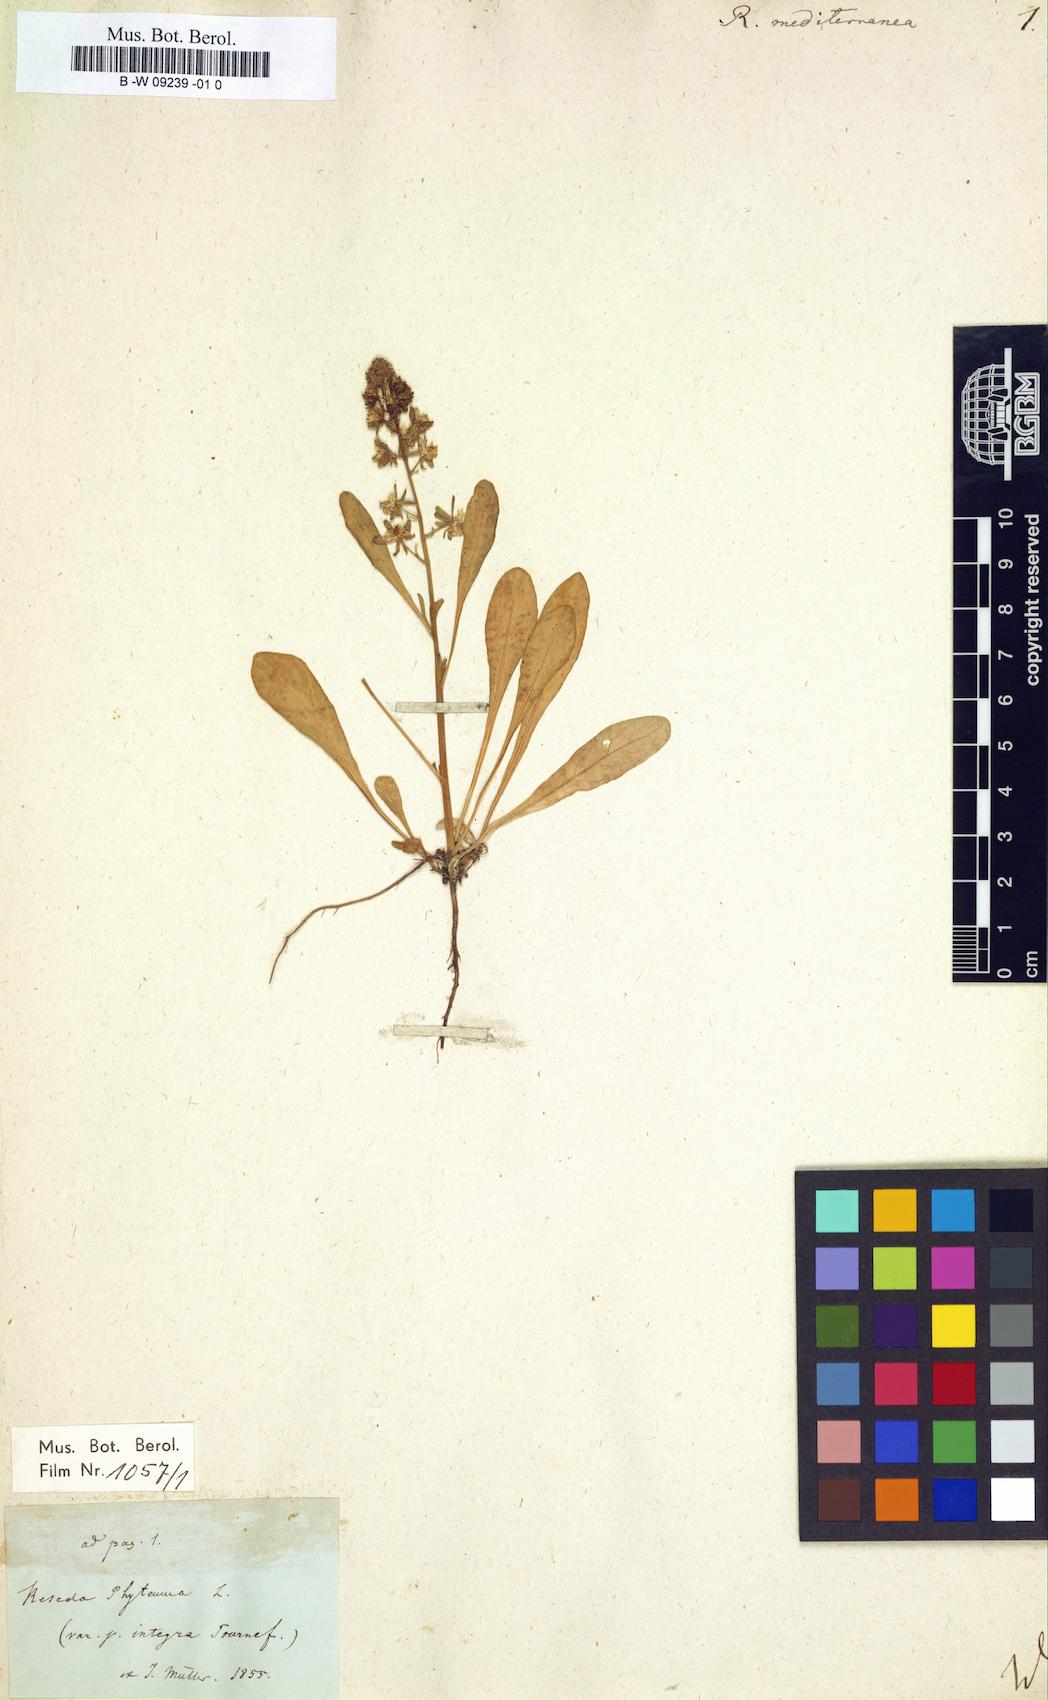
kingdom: Plantae
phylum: Tracheophyta
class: Magnoliopsida
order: Brassicales
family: Resedaceae
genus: Reseda
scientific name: Reseda mediterranea
